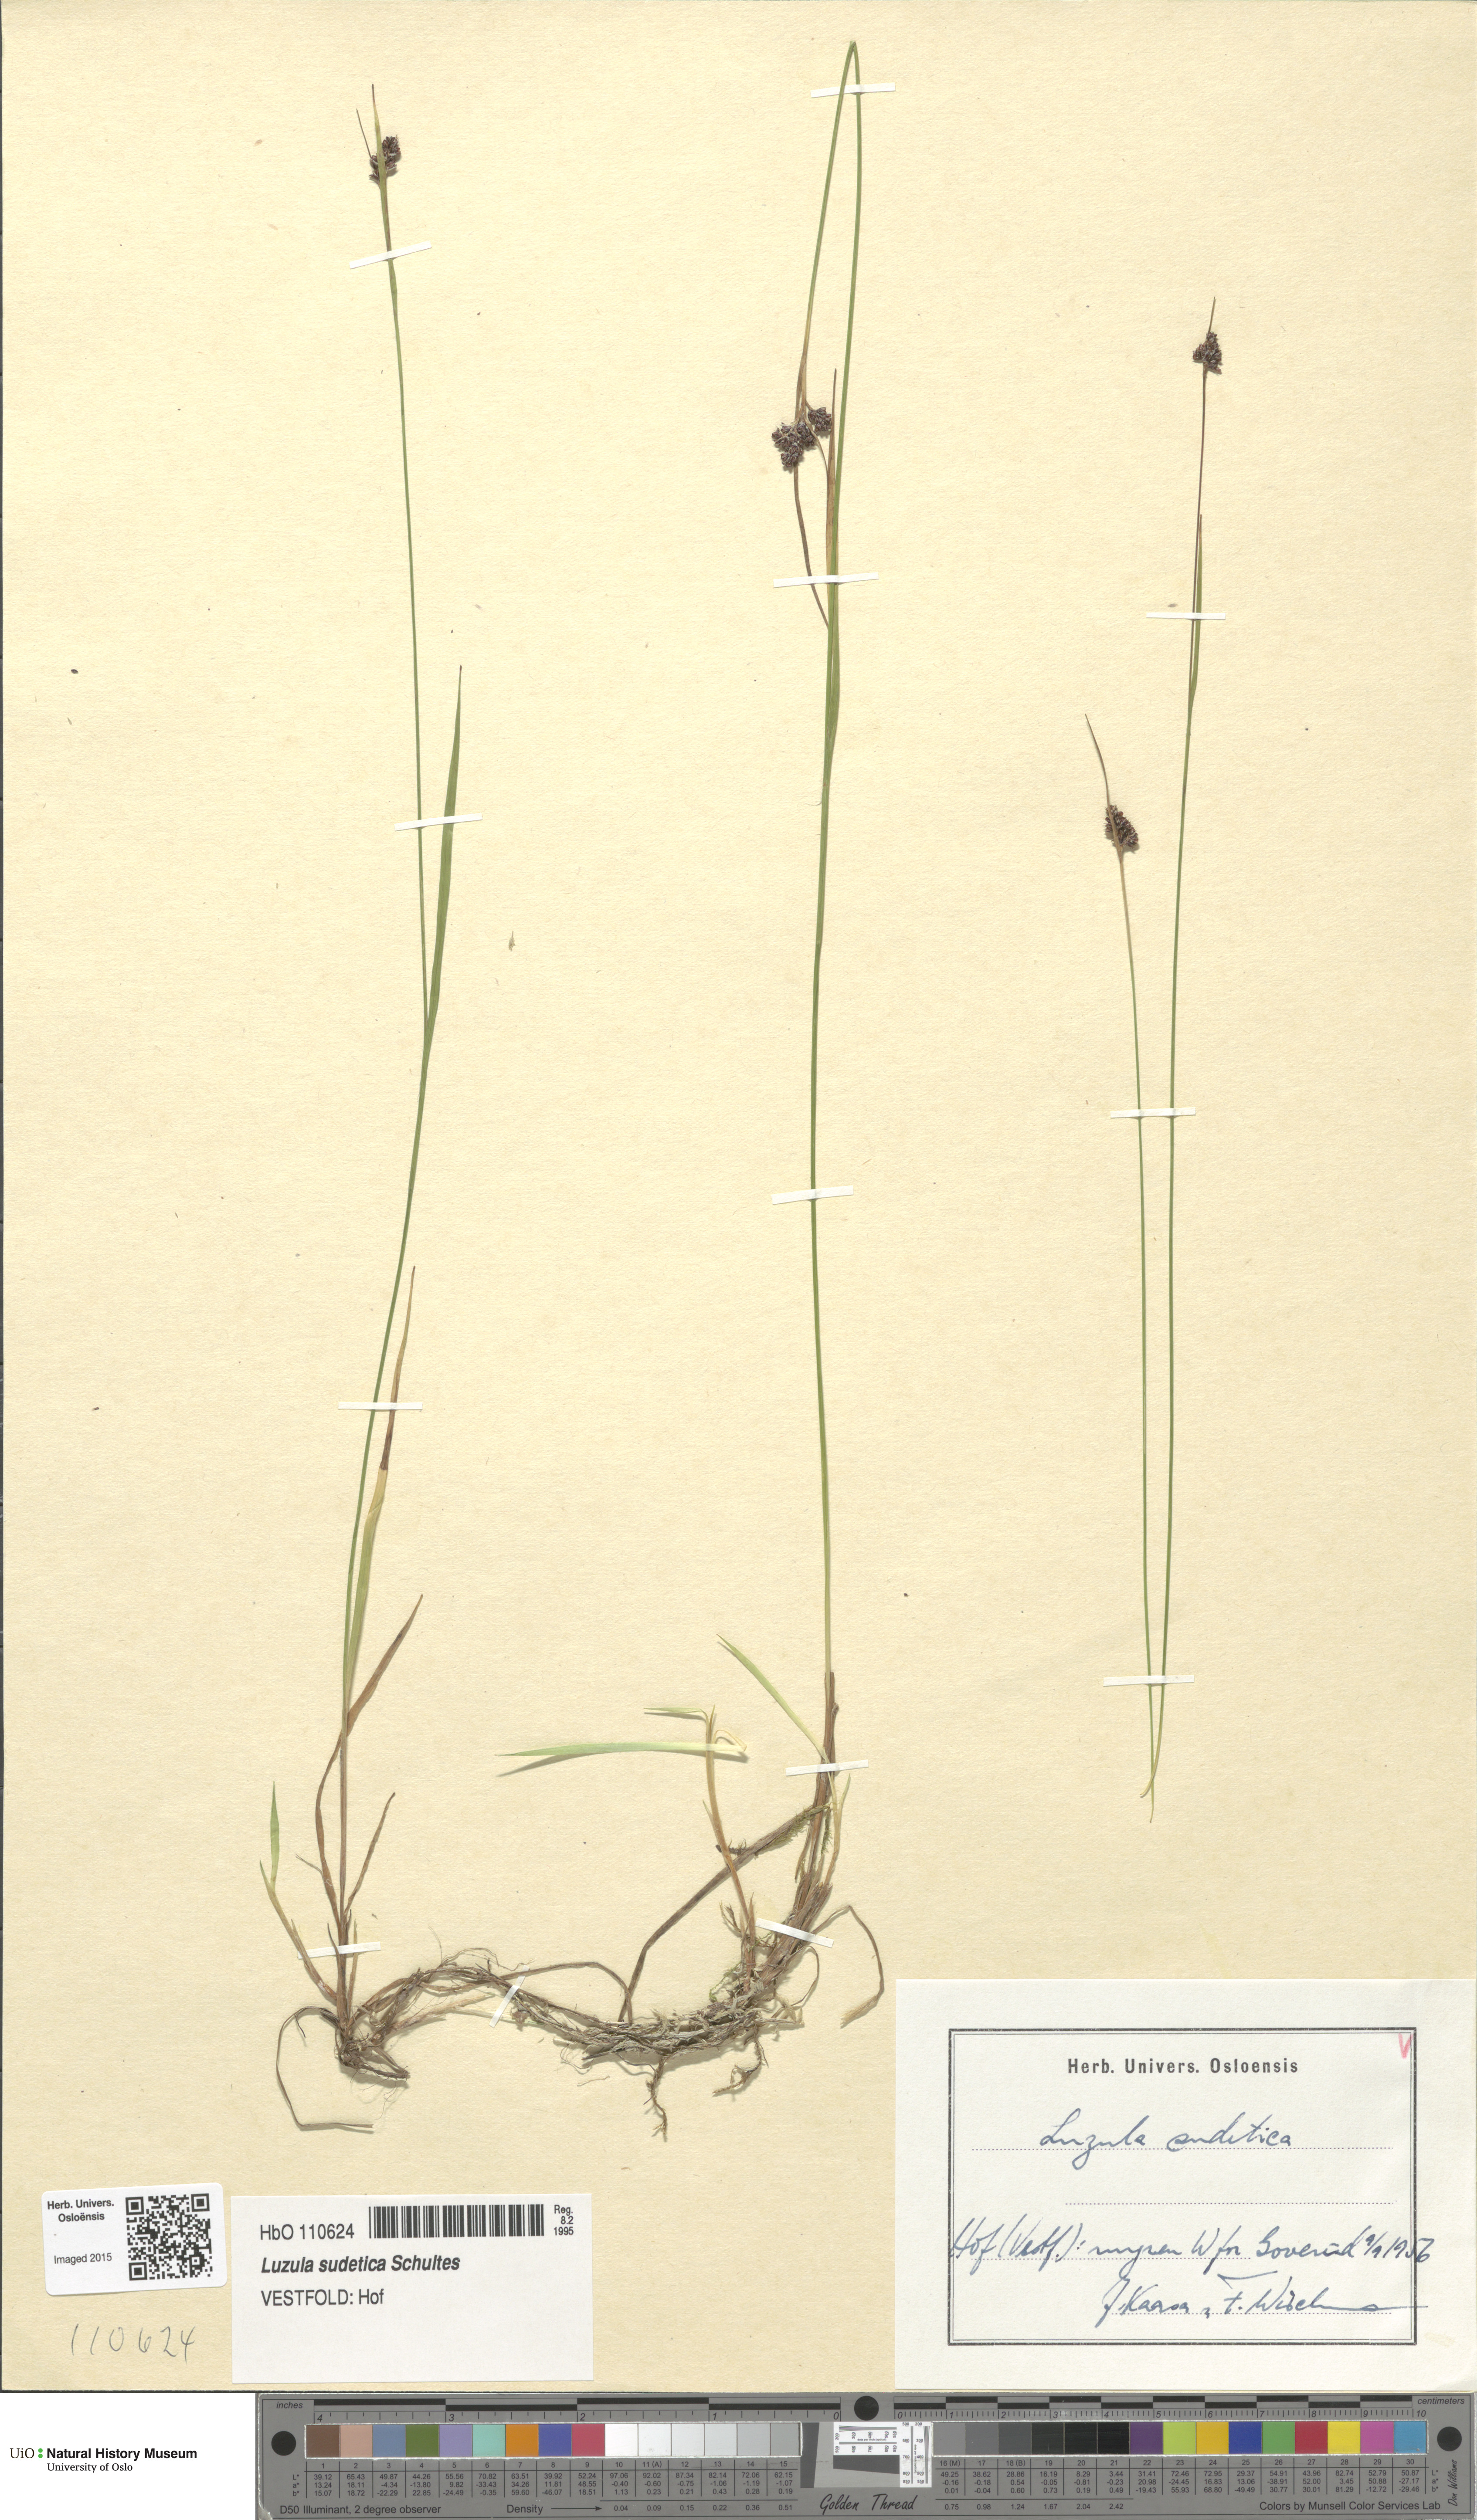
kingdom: Plantae
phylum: Tracheophyta
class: Liliopsida
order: Poales
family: Juncaceae
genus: Luzula
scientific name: Luzula sudetica
